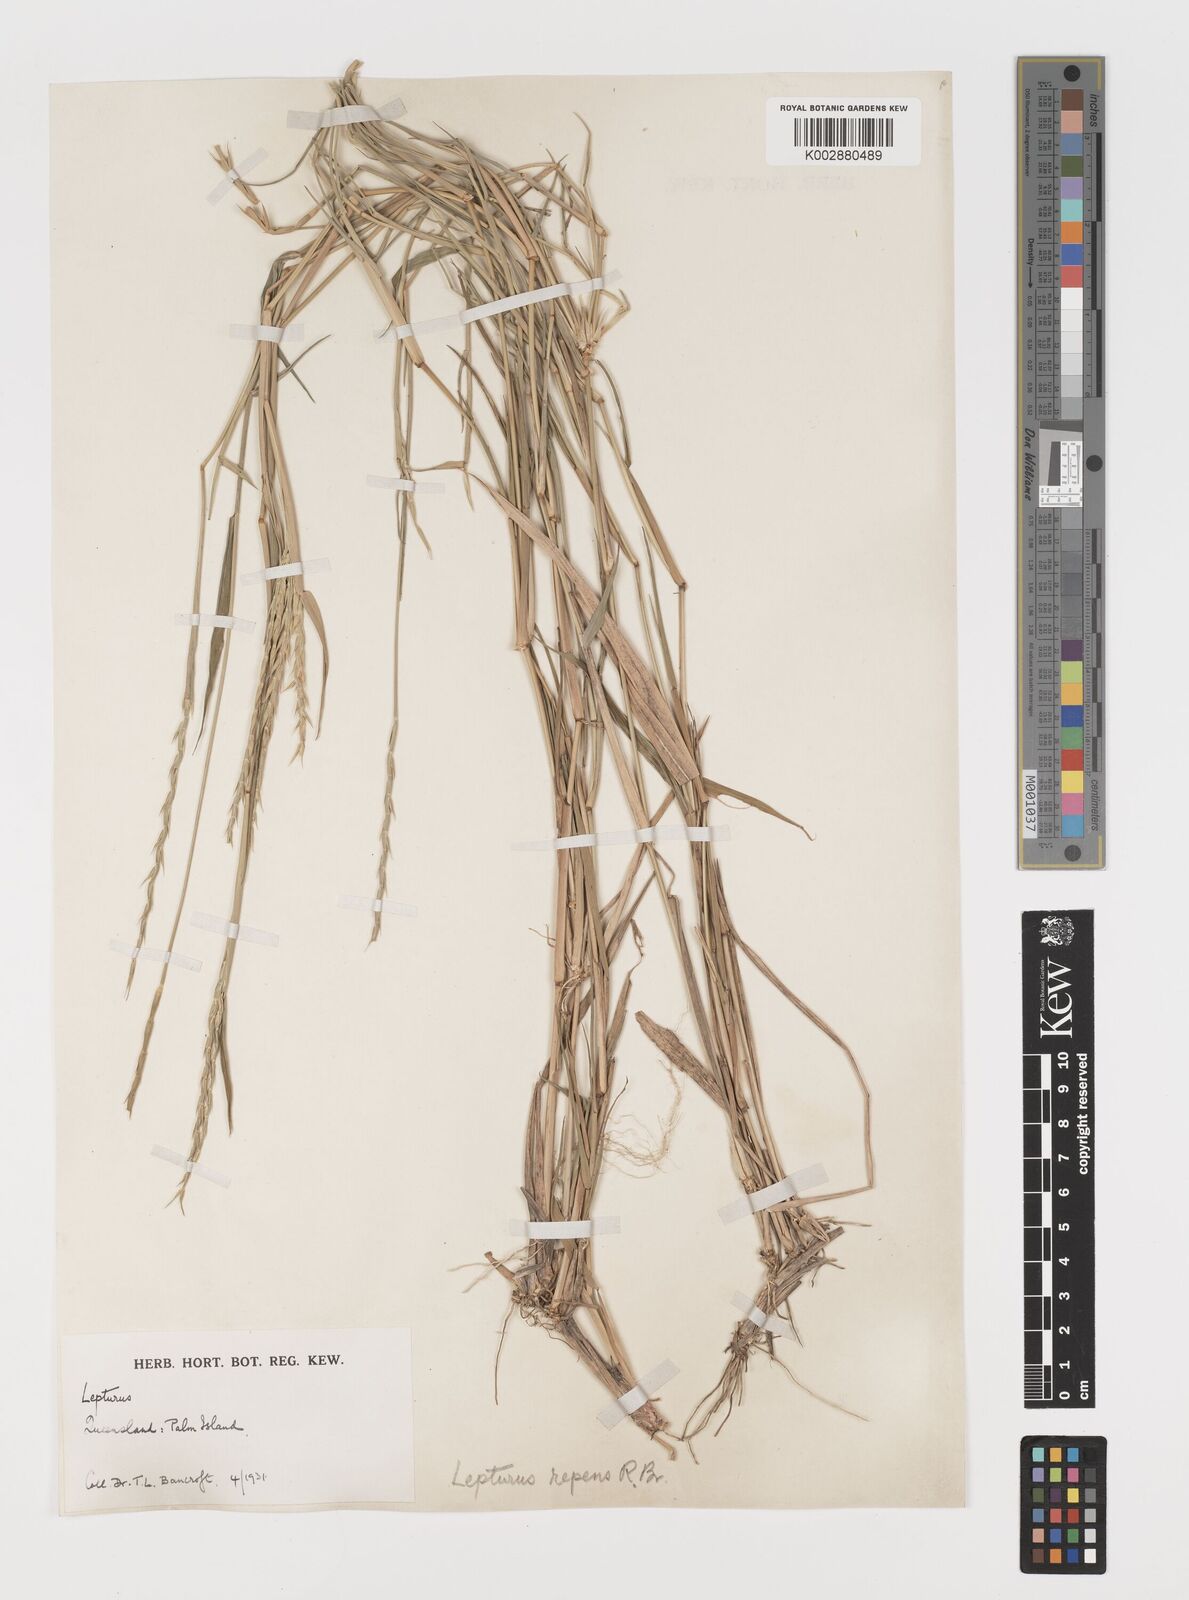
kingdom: Plantae
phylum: Tracheophyta
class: Liliopsida
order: Poales
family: Poaceae
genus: Lepturus
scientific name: Lepturus repens
